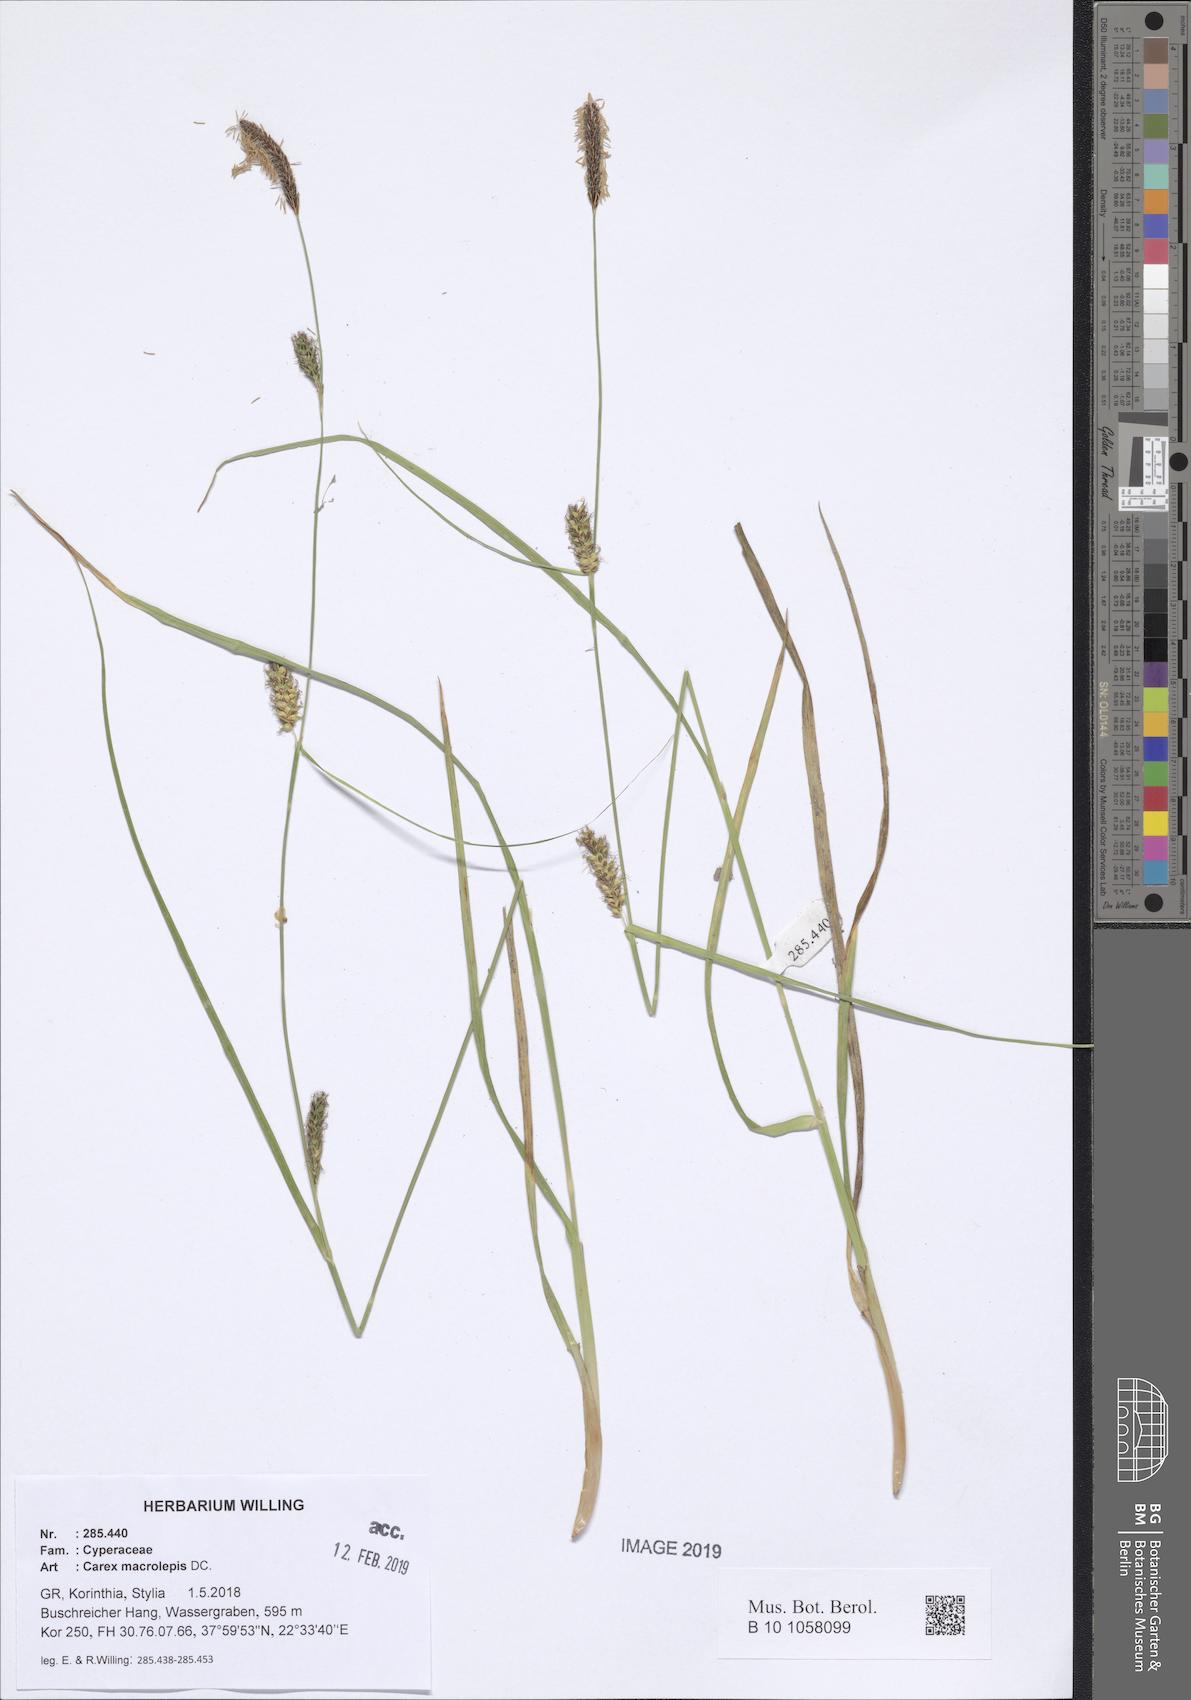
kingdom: Plantae
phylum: Tracheophyta
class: Liliopsida
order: Poales
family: Cyperaceae
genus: Carex
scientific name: Carex macrolepis
